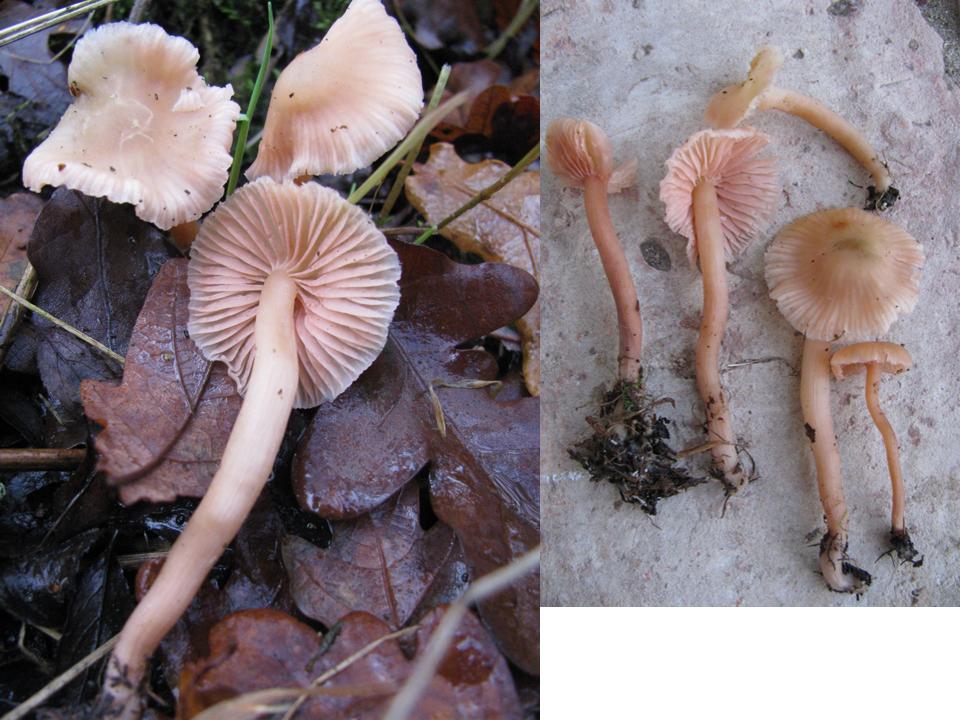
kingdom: Fungi
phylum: Basidiomycota
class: Agaricomycetes
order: Agaricales
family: Hydnangiaceae
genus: Laccaria
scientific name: Laccaria laccata
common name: rød ametysthat
